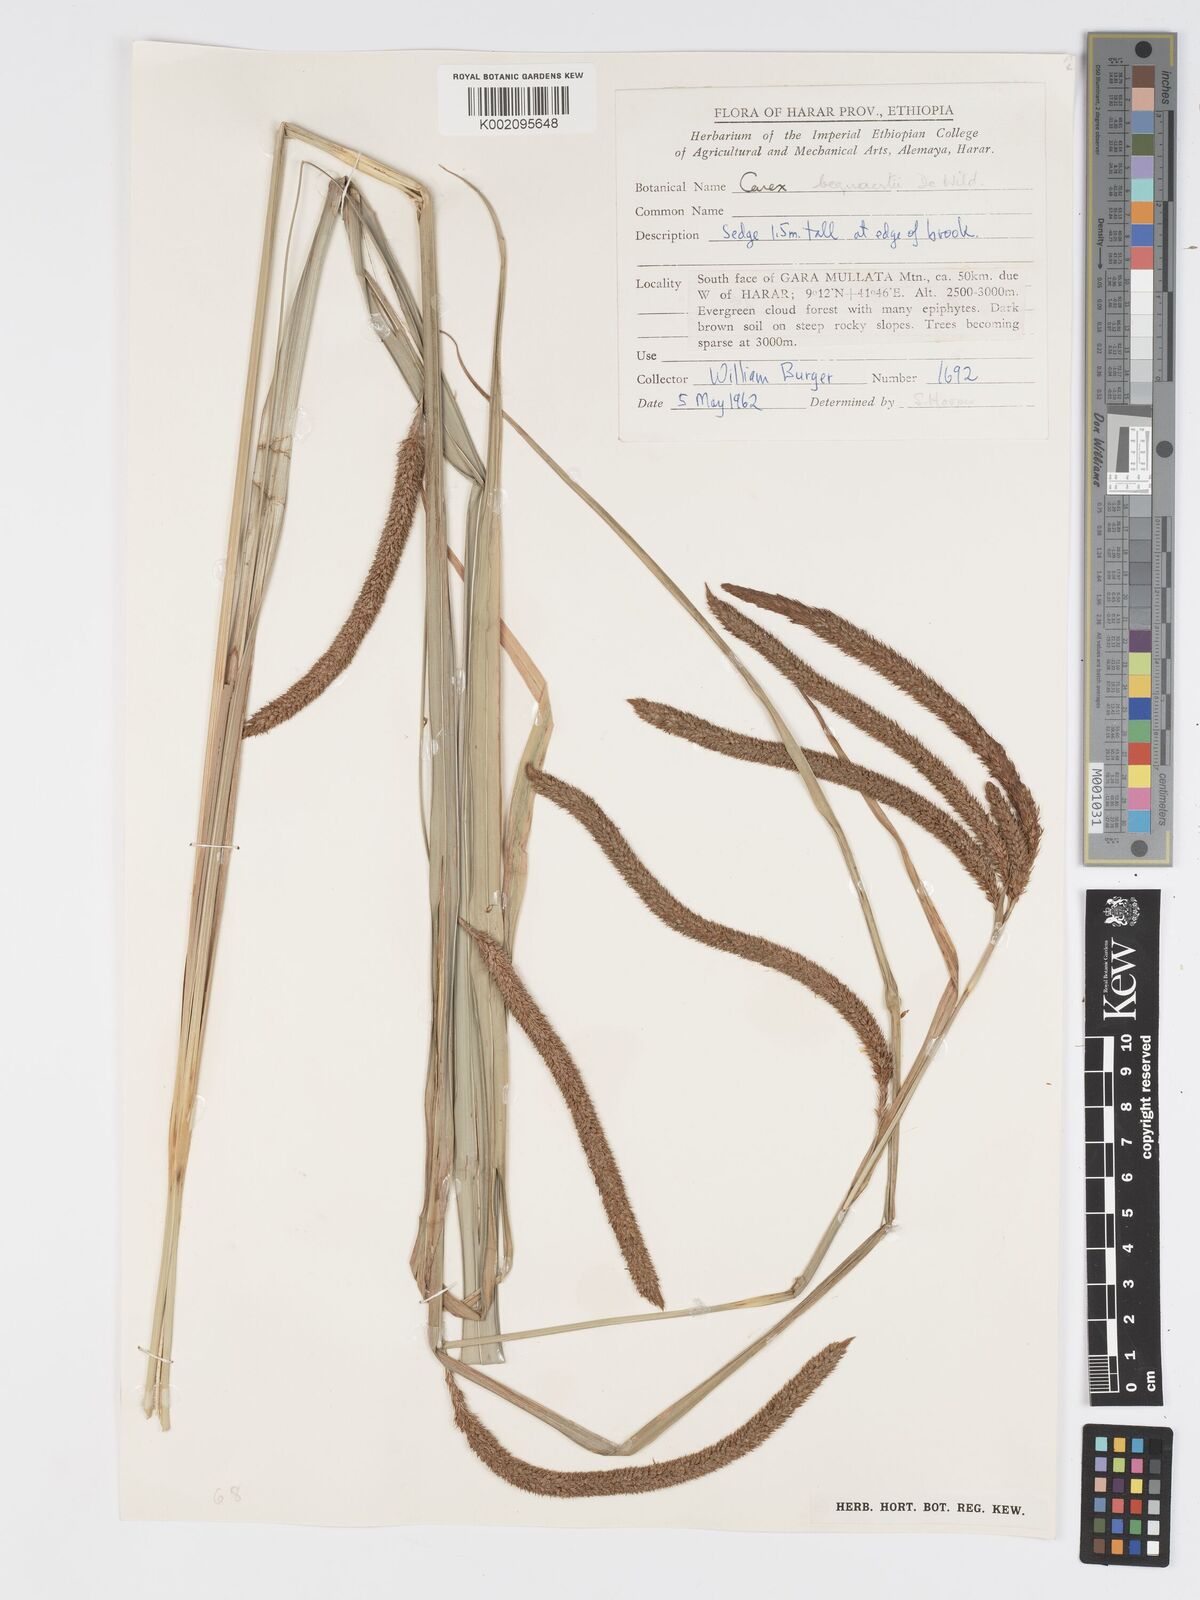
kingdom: Plantae
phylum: Tracheophyta
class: Liliopsida
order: Poales
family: Cyperaceae
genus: Carex
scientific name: Carex bequaertii
